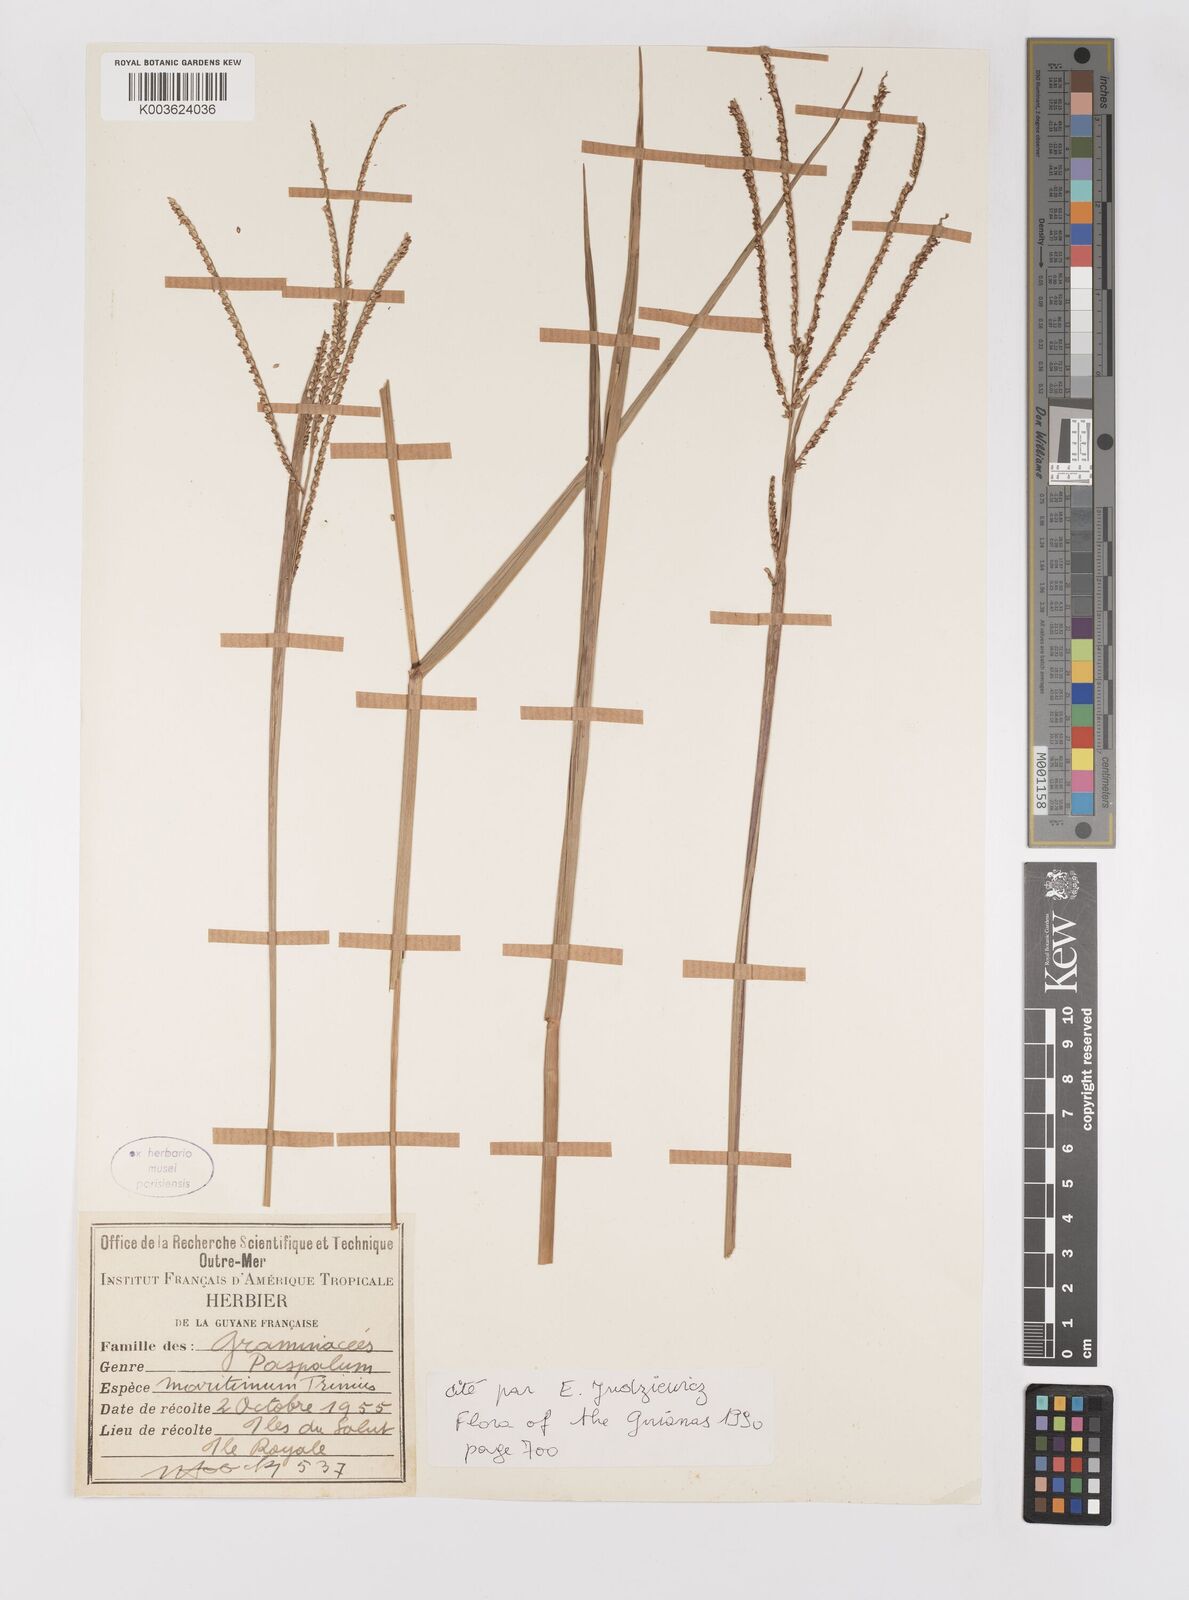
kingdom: Plantae
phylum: Tracheophyta
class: Liliopsida
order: Poales
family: Poaceae
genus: Paspalum
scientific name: Paspalum maritimum
